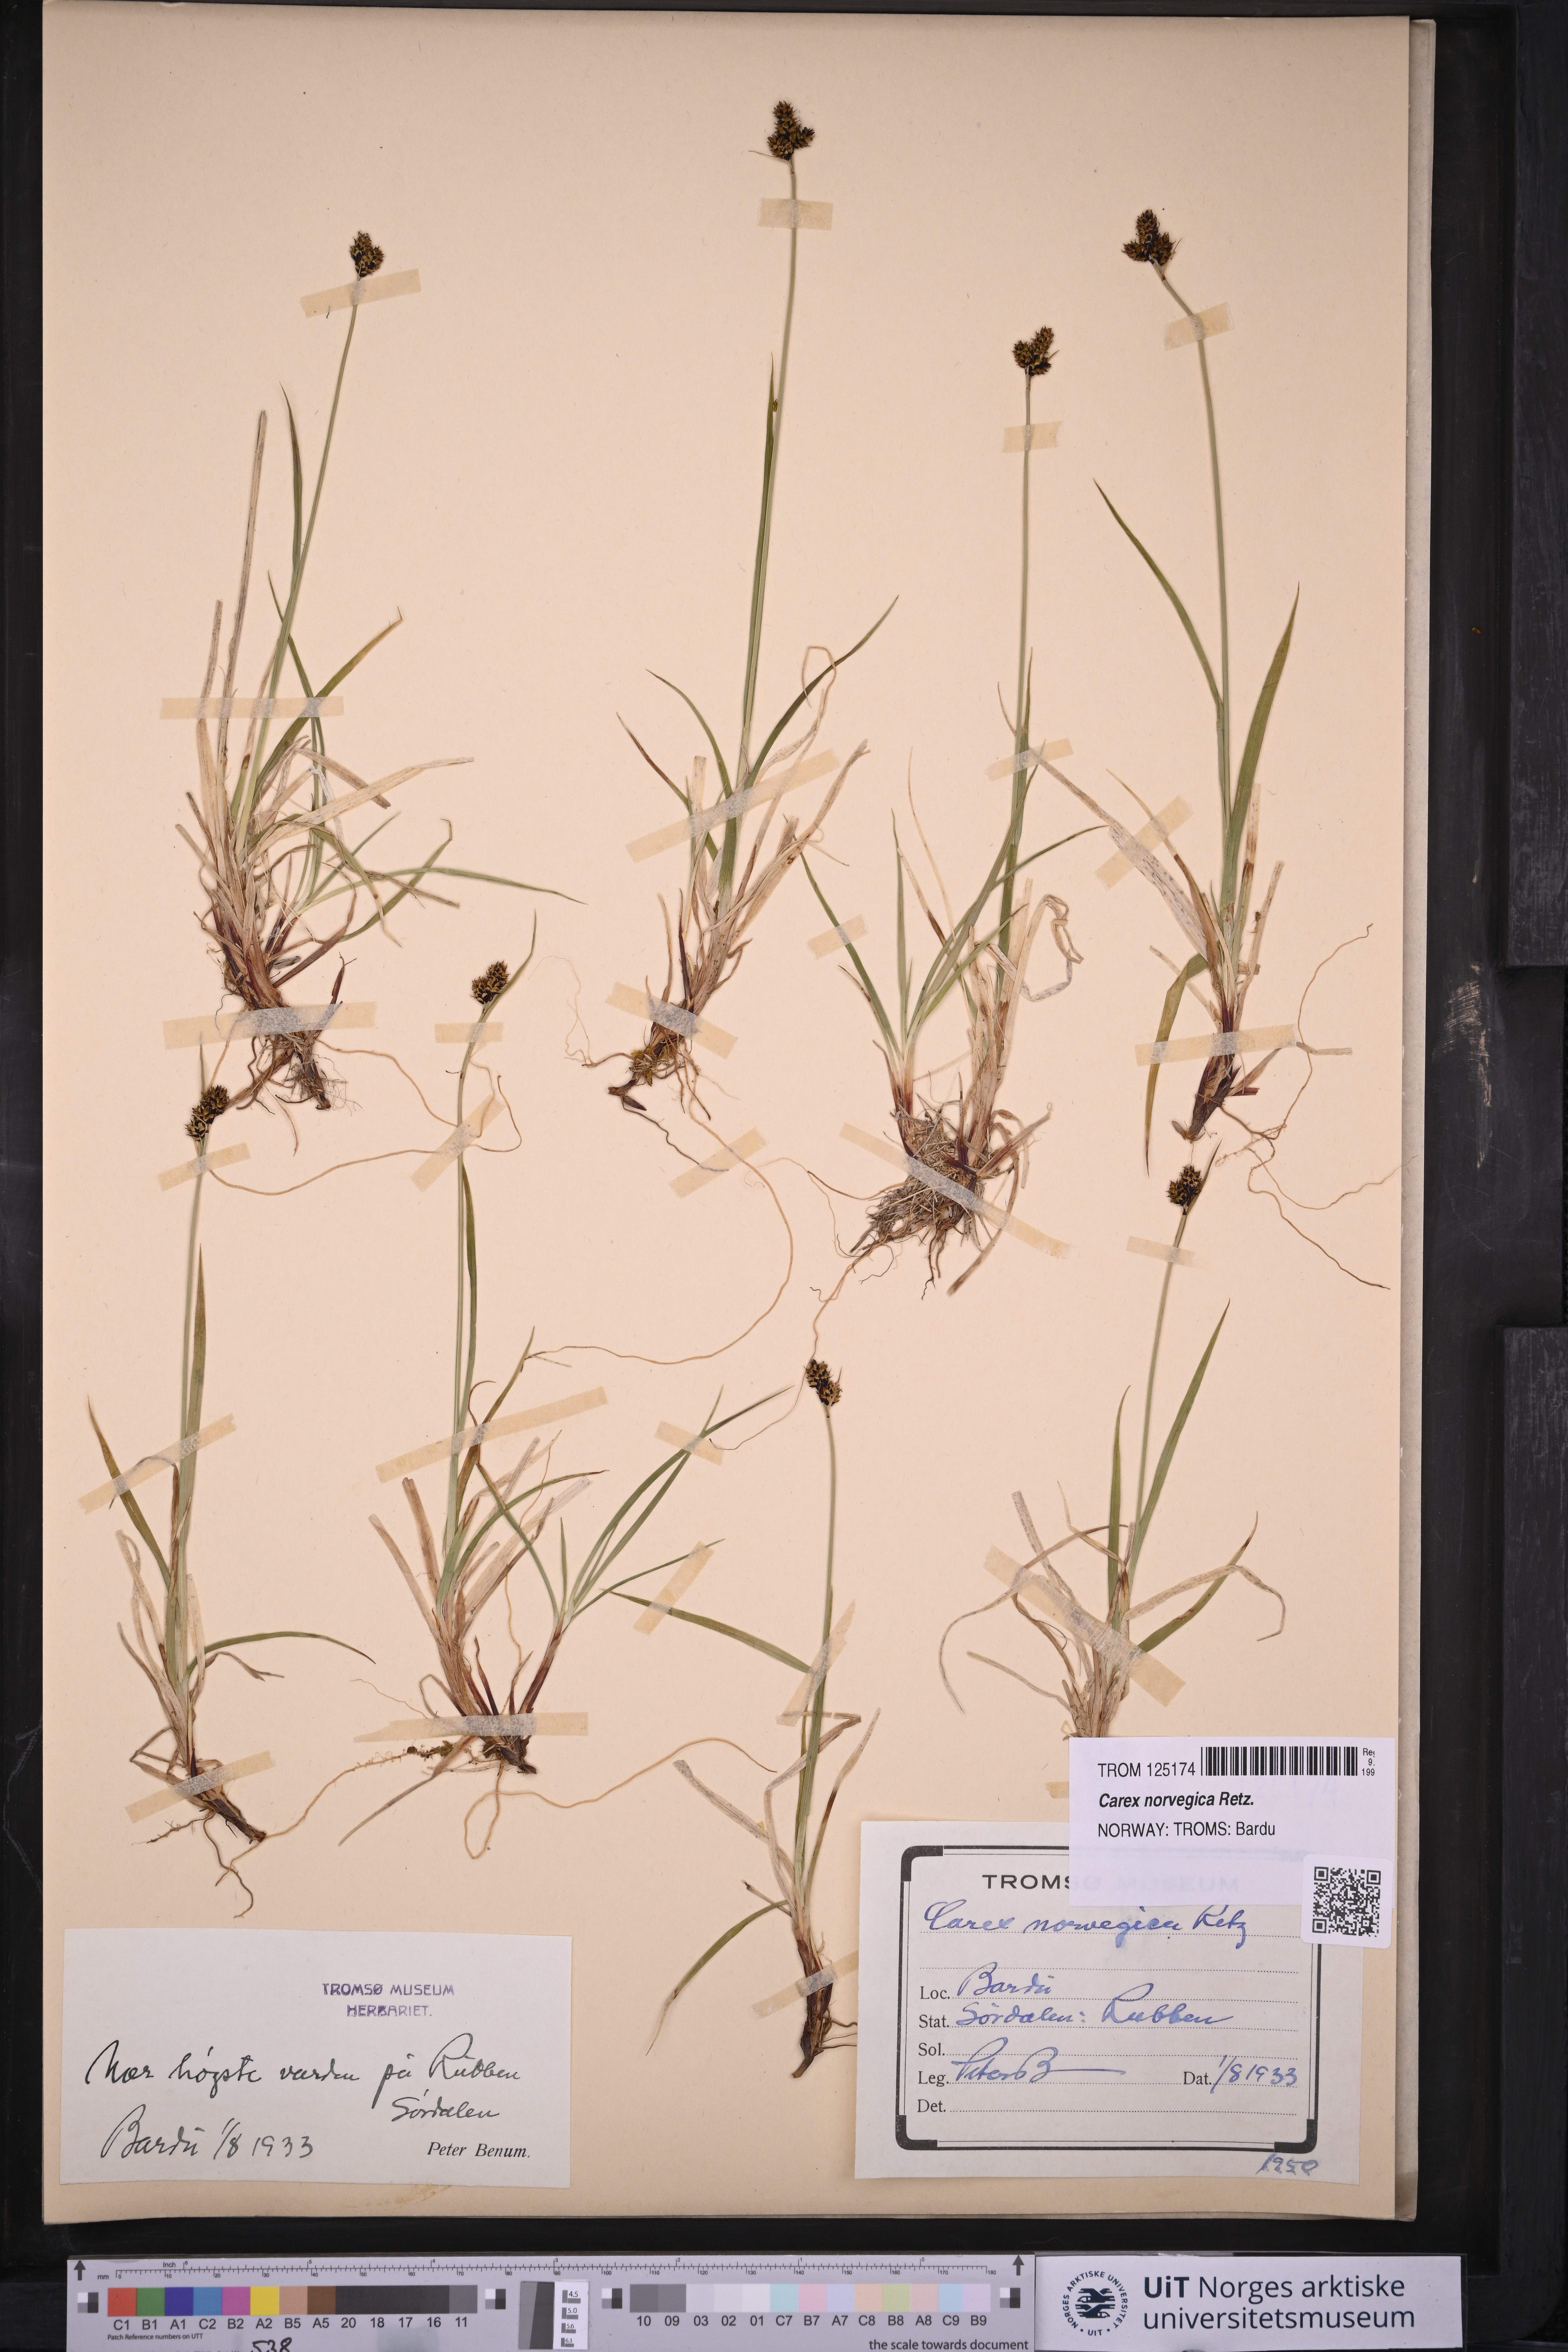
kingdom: Plantae
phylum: Tracheophyta
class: Liliopsida
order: Poales
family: Cyperaceae
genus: Carex
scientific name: Carex norvegica
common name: Close-headed alpine-sedge
